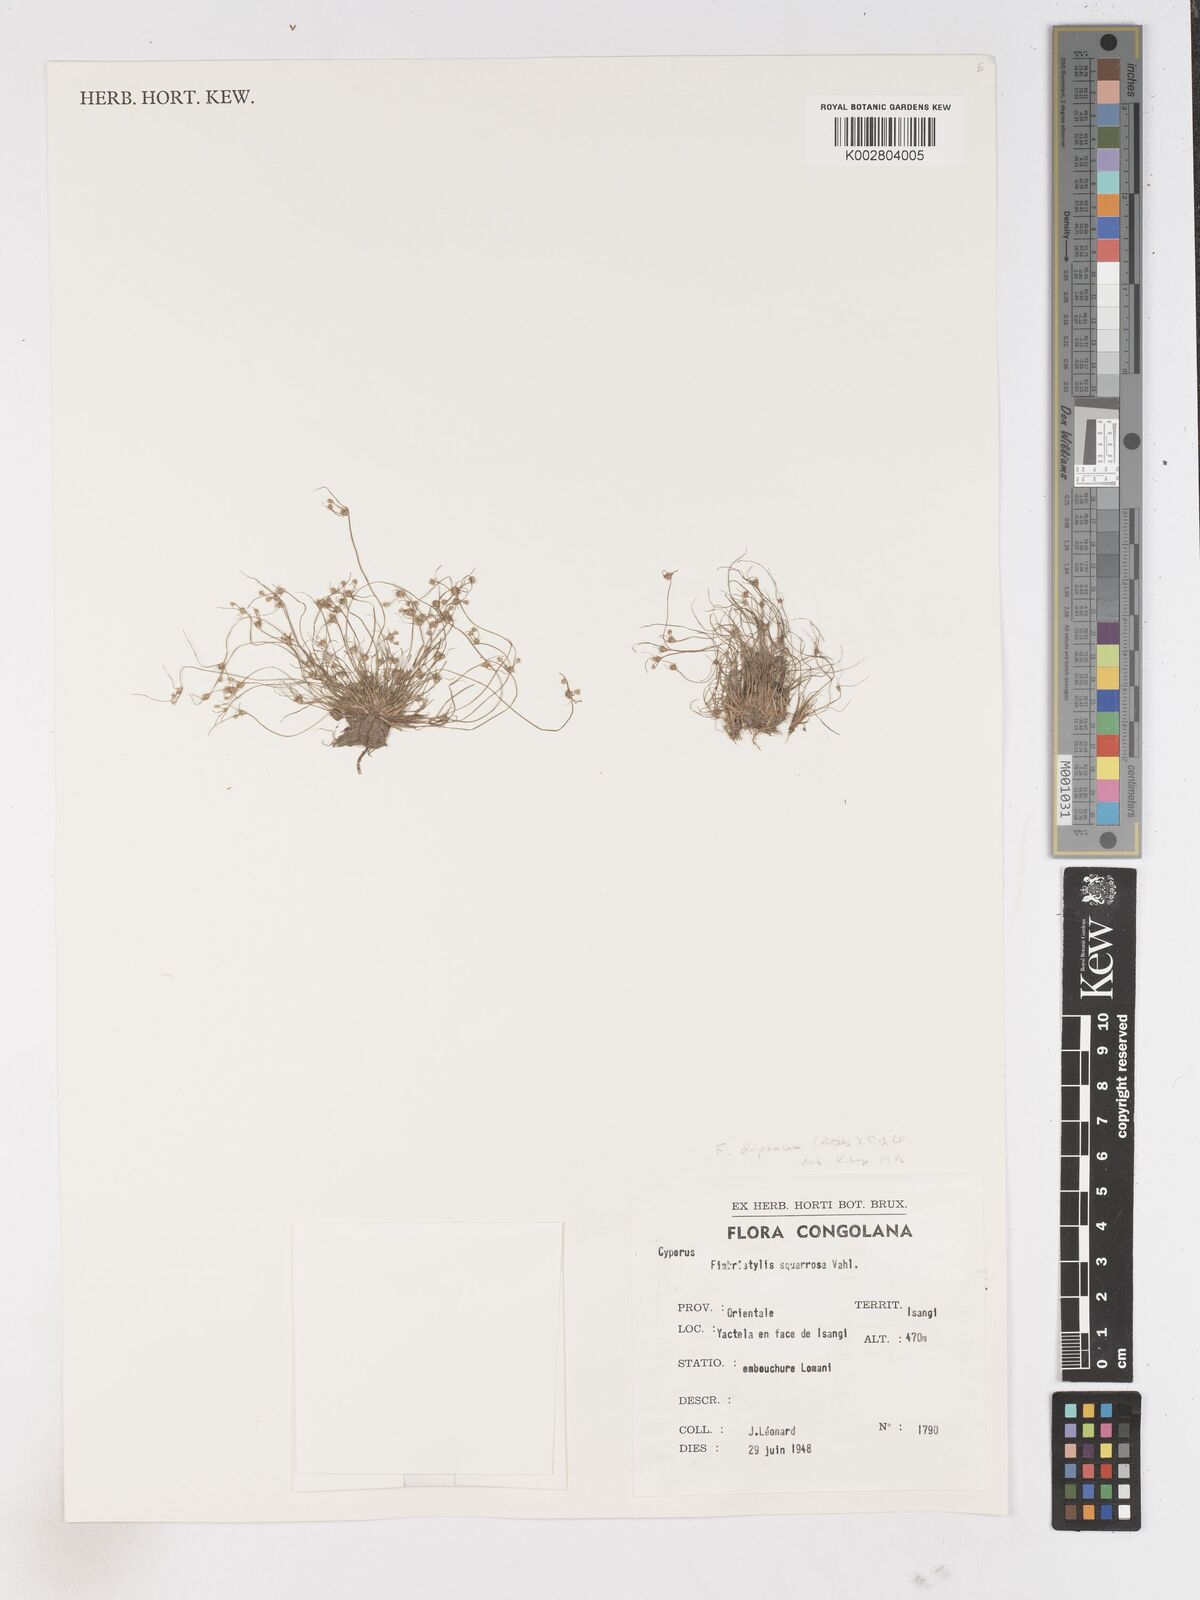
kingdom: Plantae
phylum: Tracheophyta
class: Liliopsida
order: Poales
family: Cyperaceae
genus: Fimbristylis
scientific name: Fimbristylis dipsacea
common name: Harper's fimbristylis
